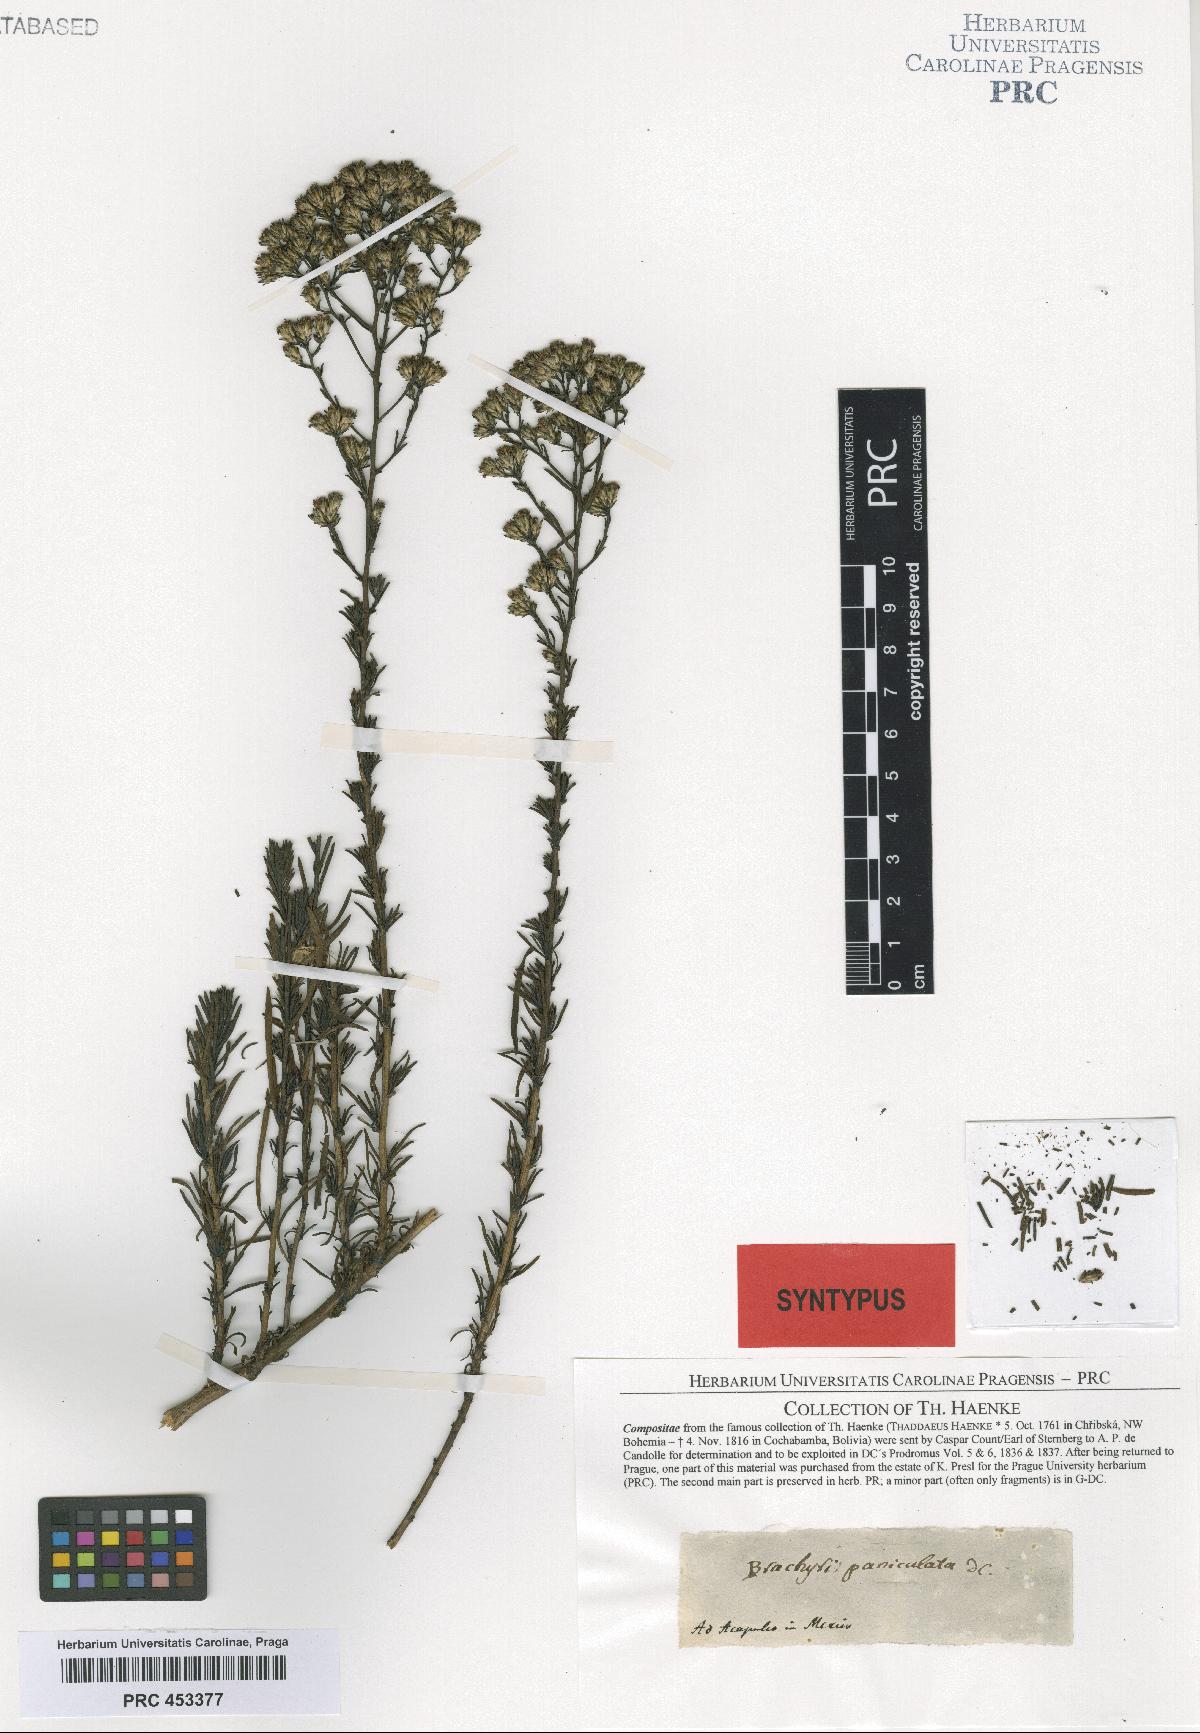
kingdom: Plantae
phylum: Tracheophyta
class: Magnoliopsida
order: Asterales
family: Asteraceae
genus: Gutierrezia
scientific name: Gutierrezia resinosa
